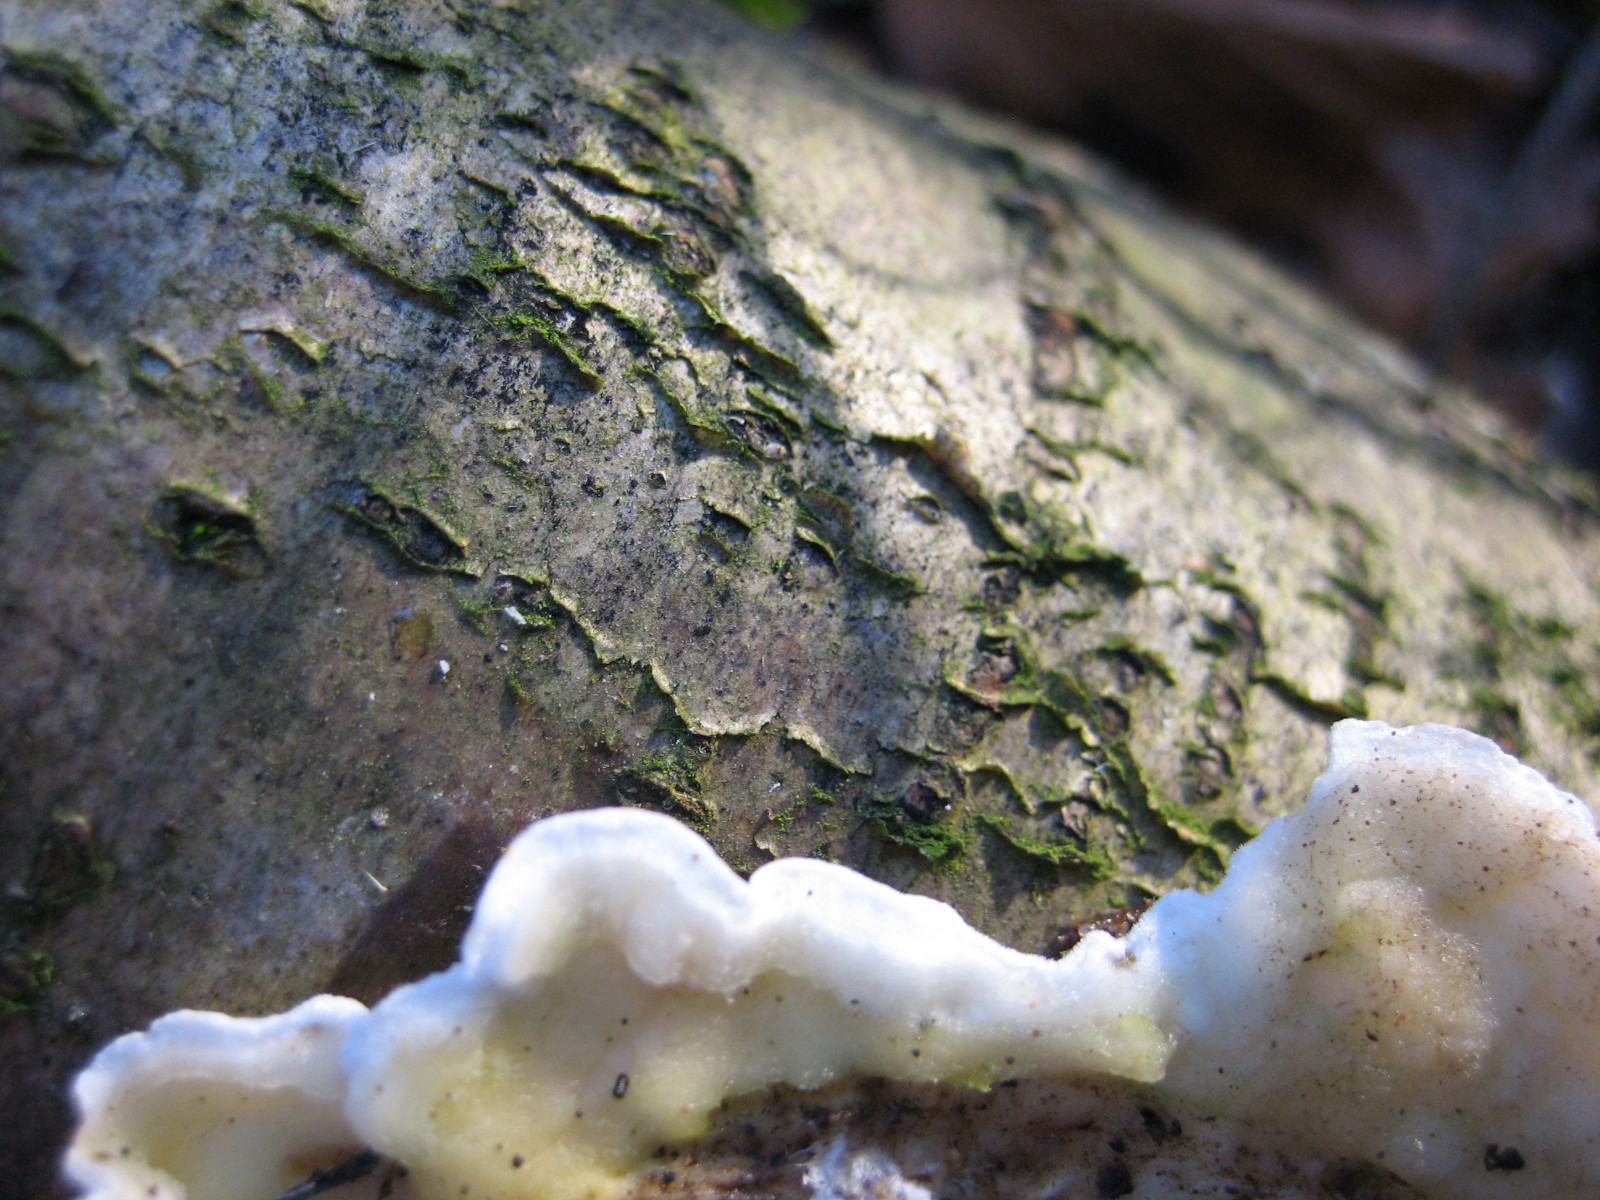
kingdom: Fungi
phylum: Basidiomycota
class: Agaricomycetes
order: Polyporales
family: Irpicaceae
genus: Byssomerulius
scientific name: Byssomerulius corium
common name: læder-åresvamp
